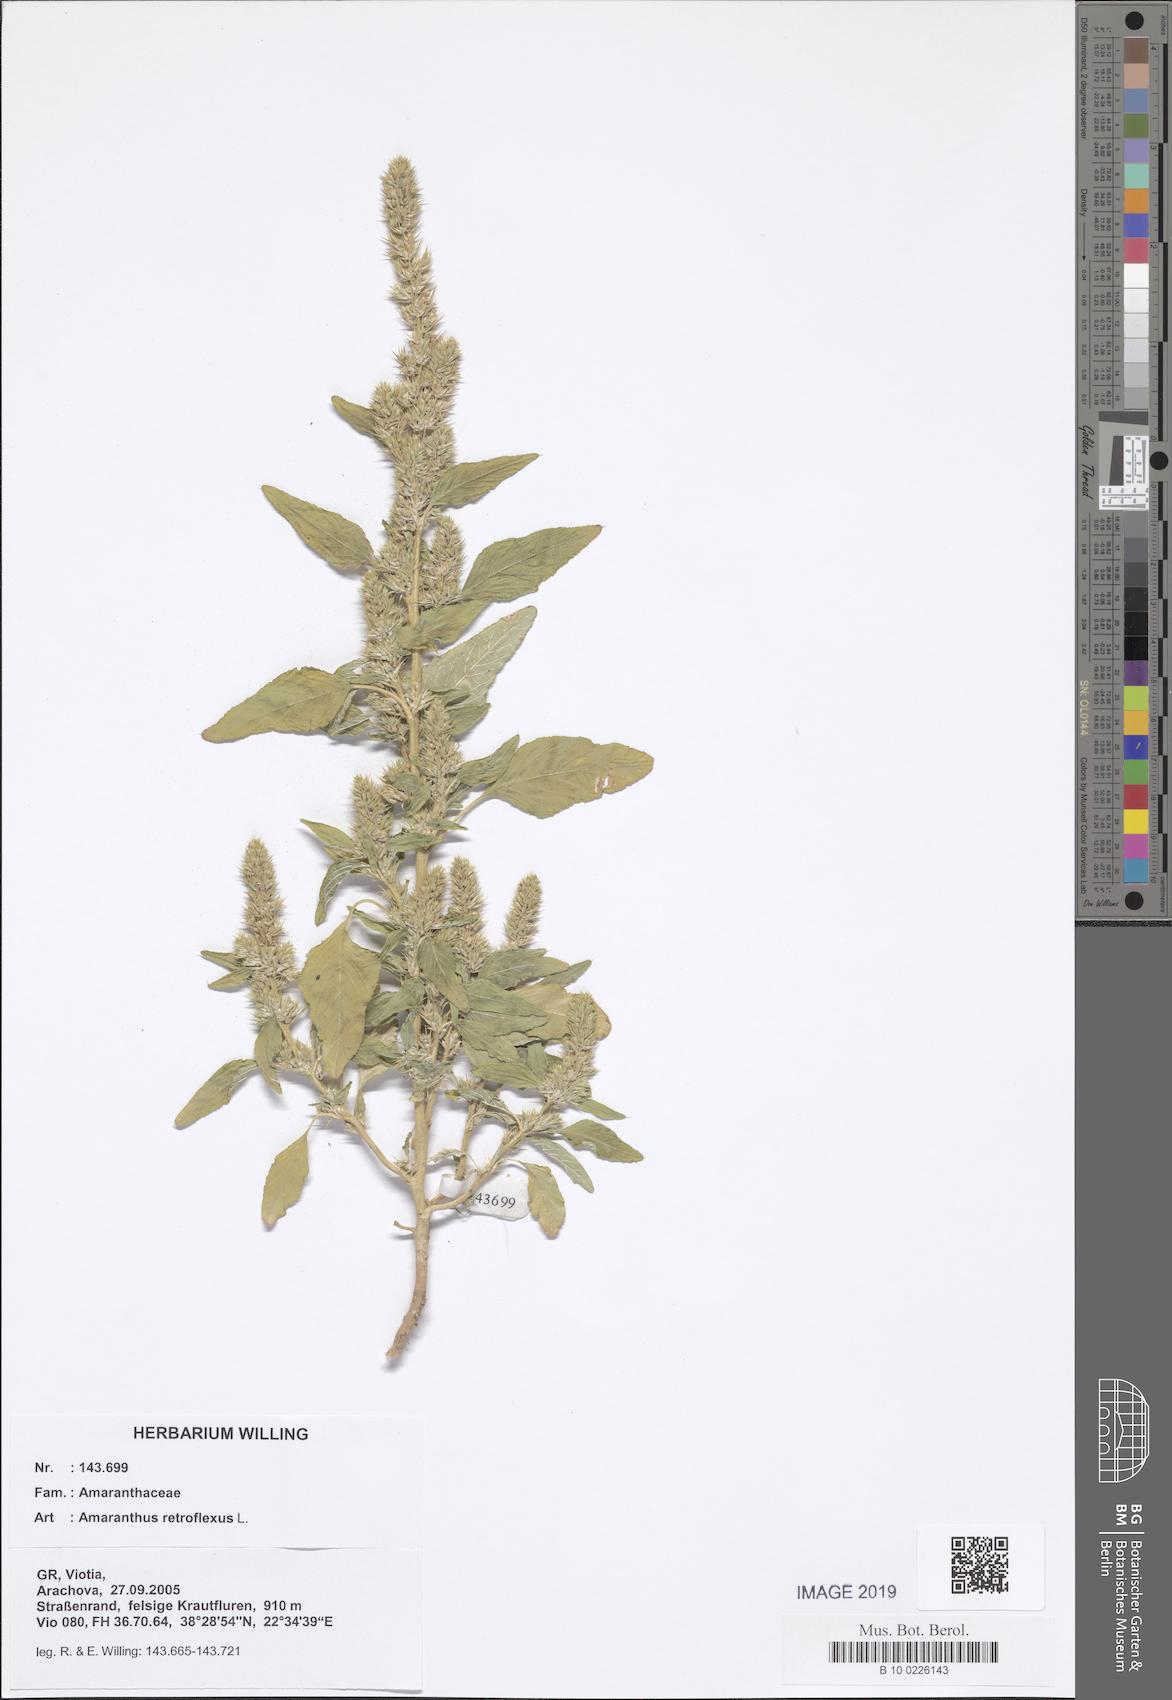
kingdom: Plantae
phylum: Tracheophyta
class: Magnoliopsida
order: Caryophyllales
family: Amaranthaceae
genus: Amaranthus
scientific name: Amaranthus retroflexus
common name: Redroot amaranth
